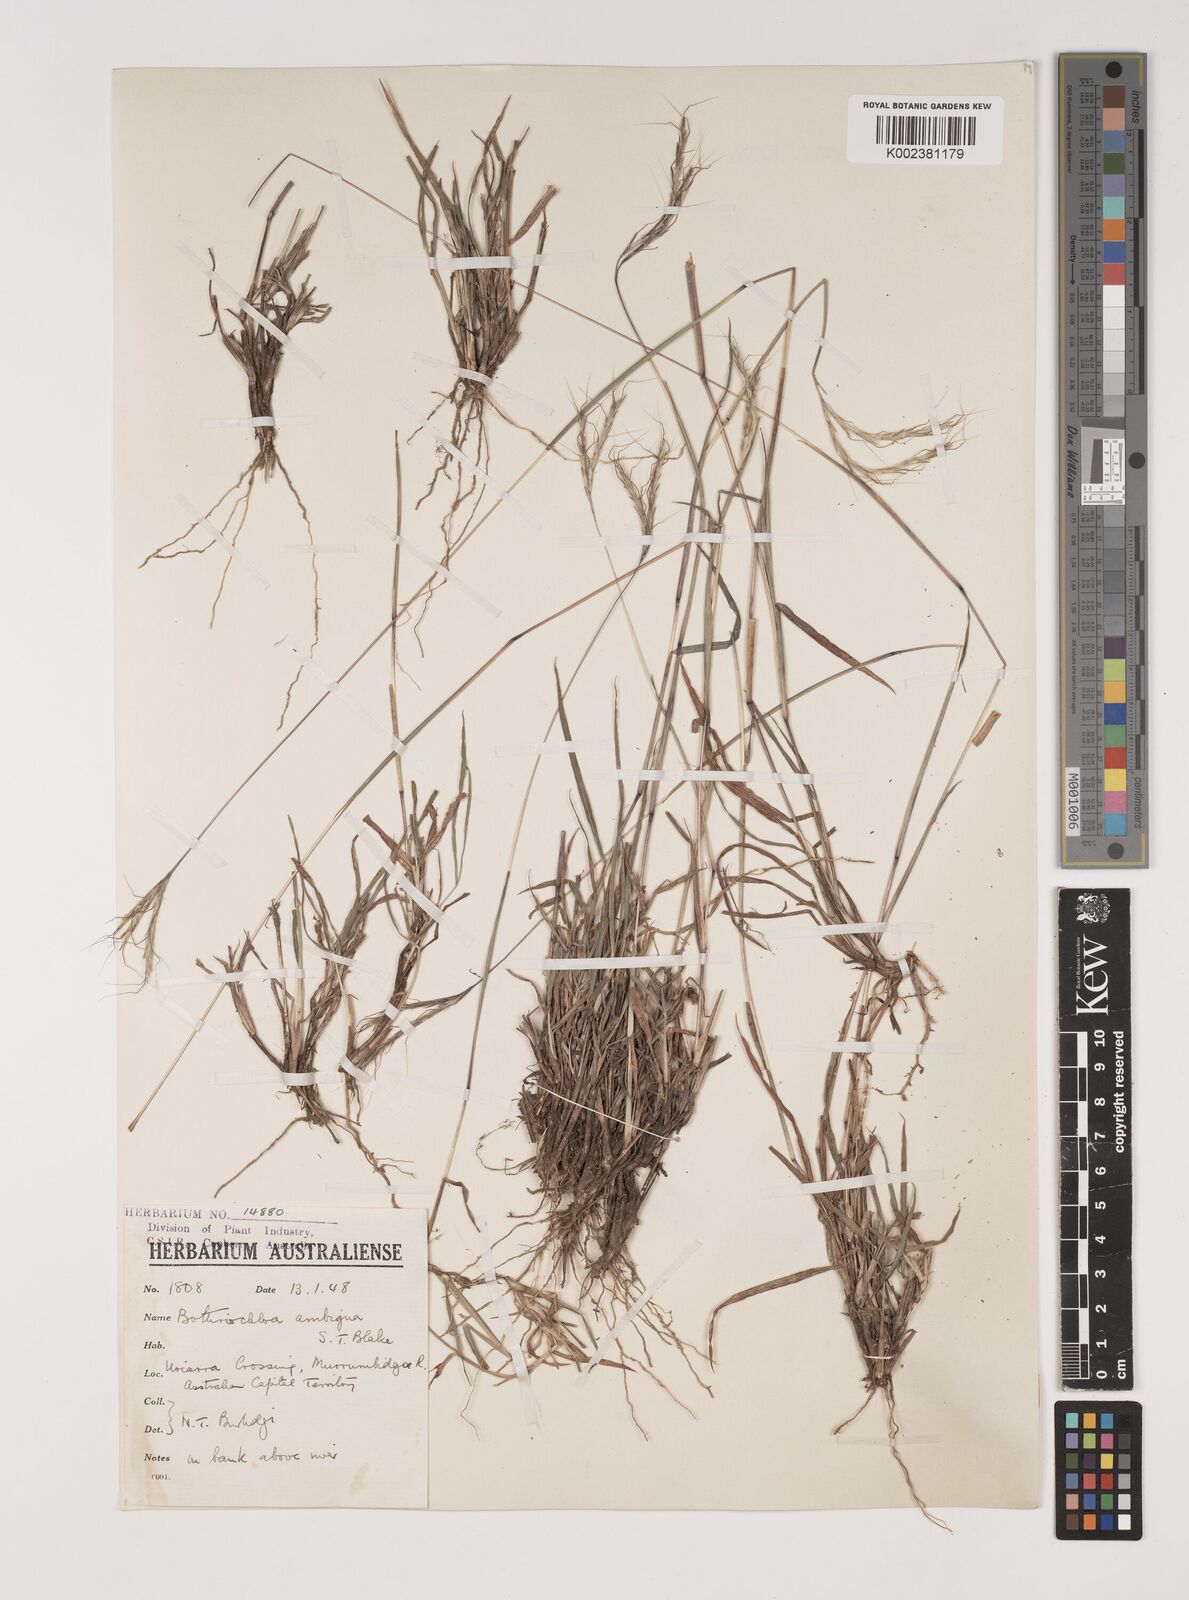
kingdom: Plantae
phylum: Tracheophyta
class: Liliopsida
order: Poales
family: Poaceae
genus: Bothriochloa
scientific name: Bothriochloa macra
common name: Pitted beard grass
